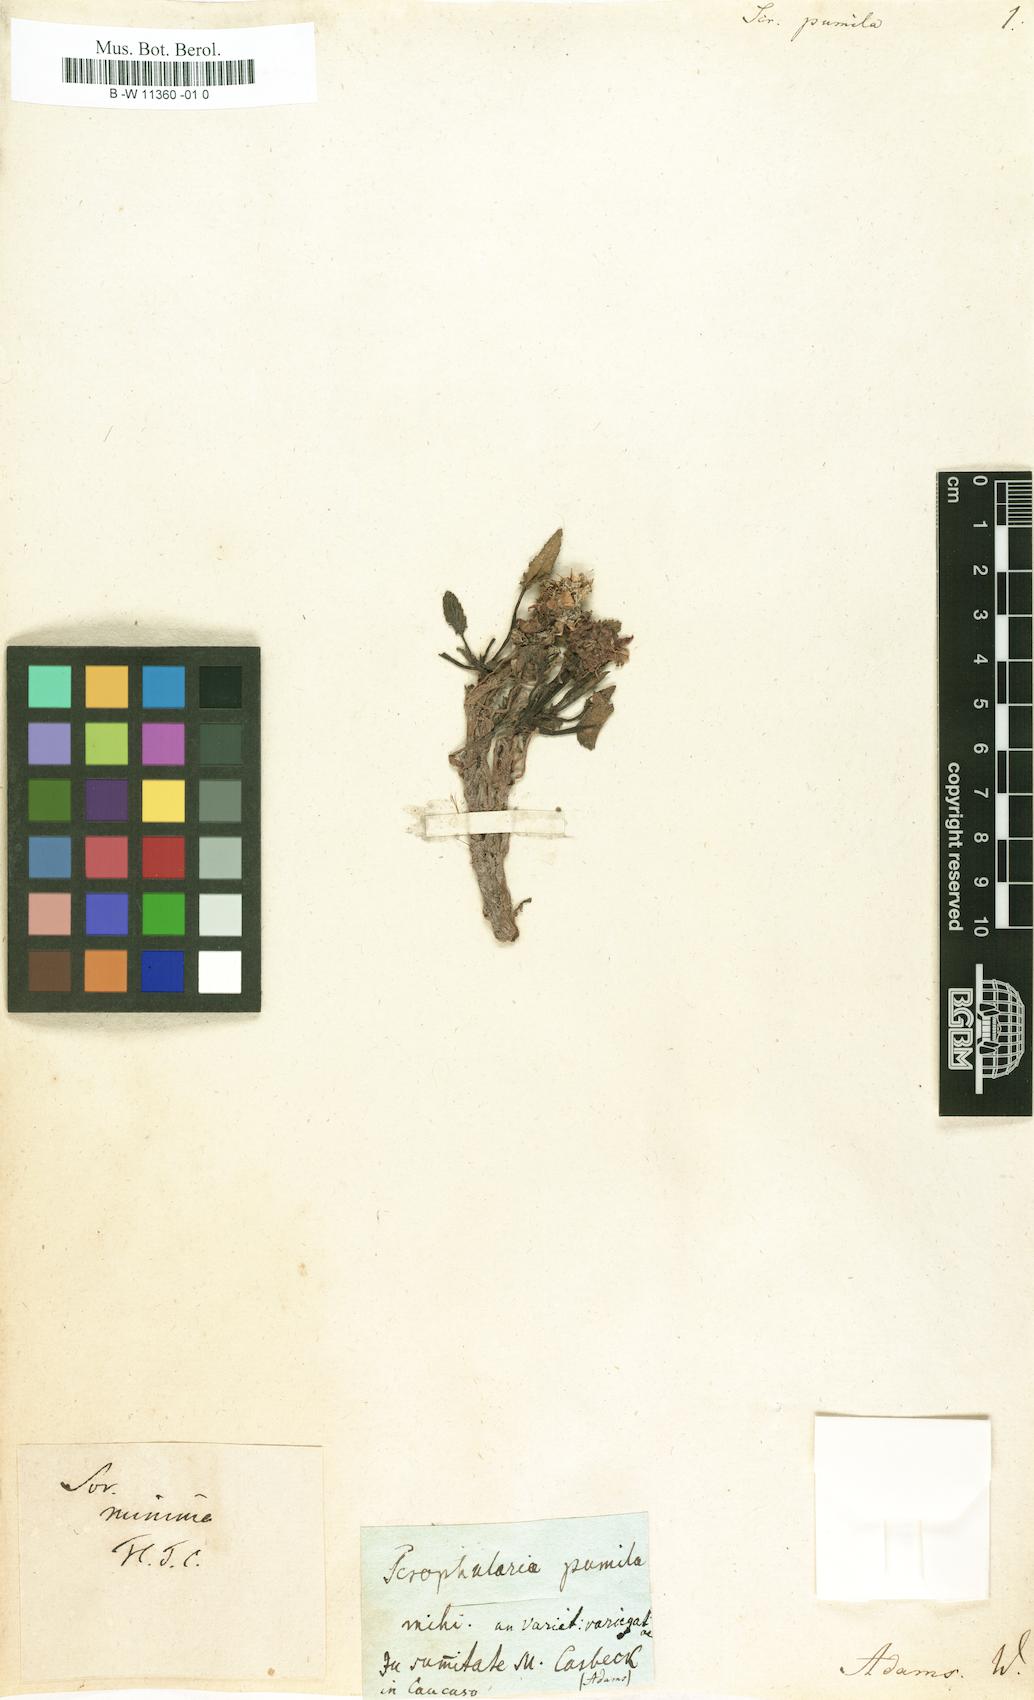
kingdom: Plantae
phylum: Tracheophyta
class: Magnoliopsida
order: Lamiales
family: Scrophulariaceae
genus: Scrophularia
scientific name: Scrophularia minima
